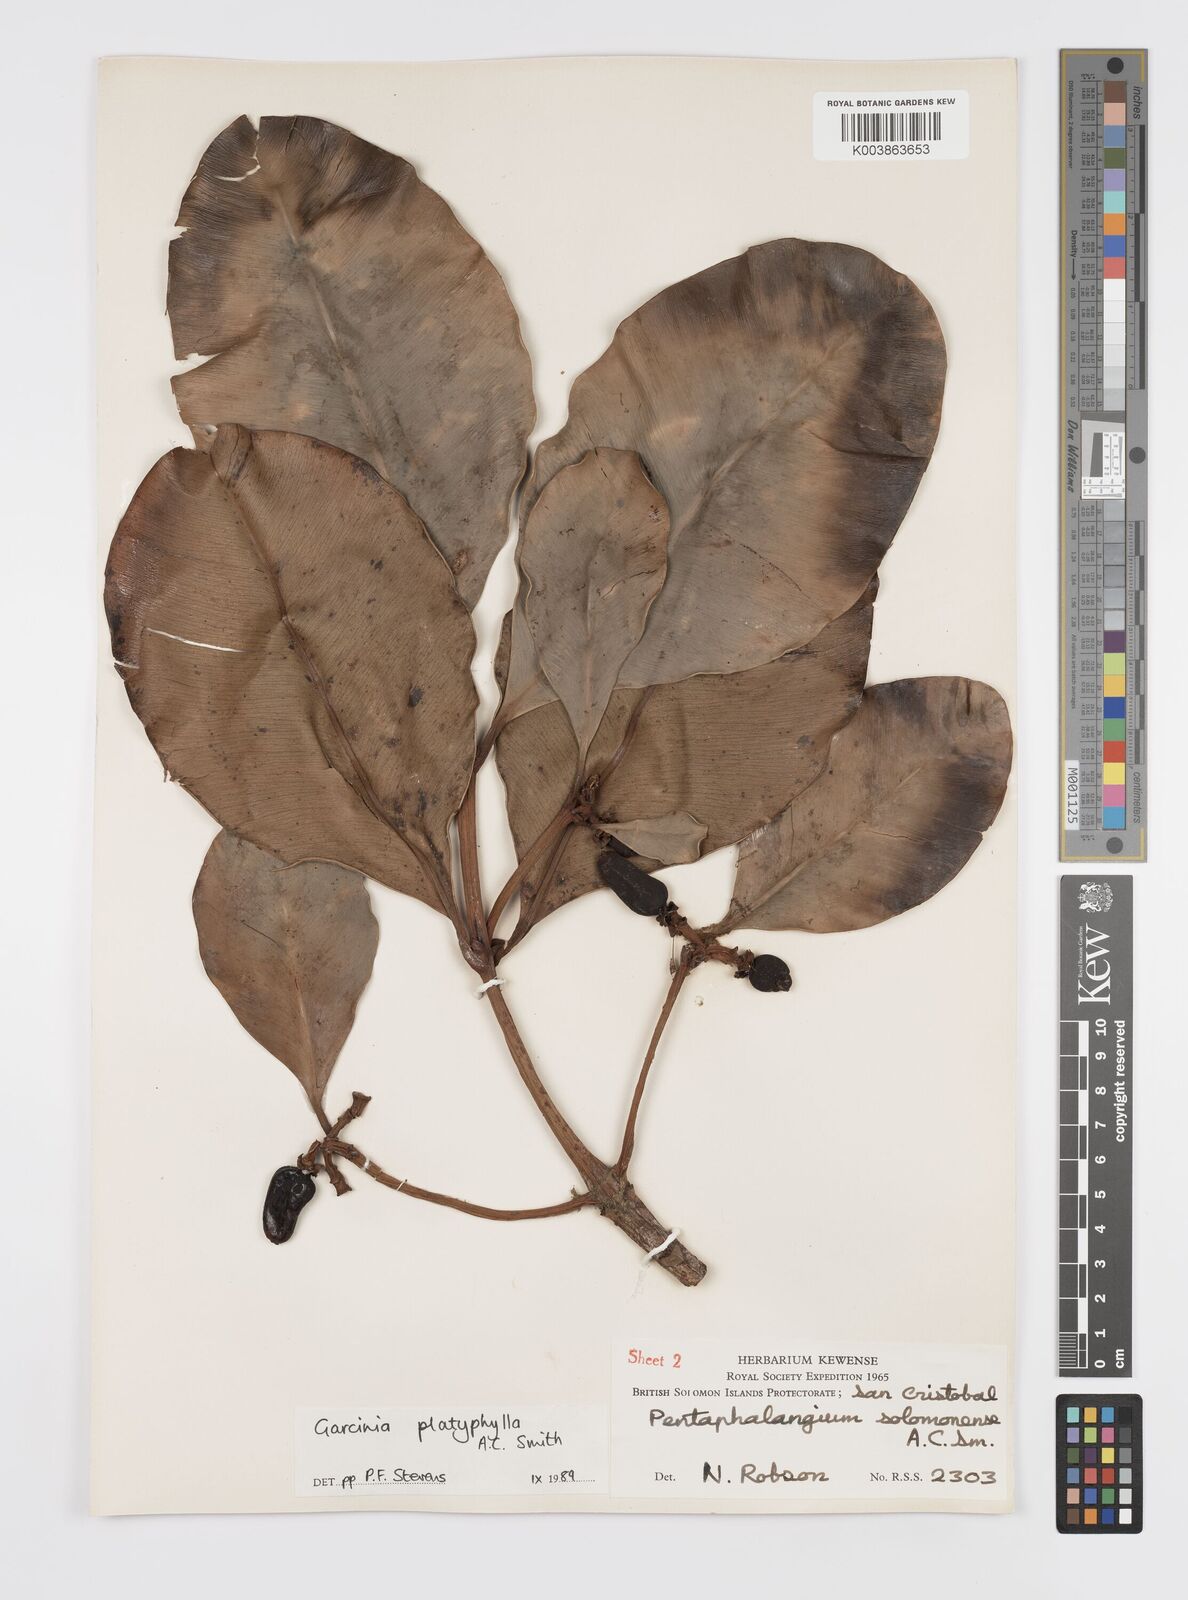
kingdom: Plantae
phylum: Tracheophyta
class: Magnoliopsida
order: Malpighiales
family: Clusiaceae
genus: Garcinia
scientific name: Garcinia platyphylla
